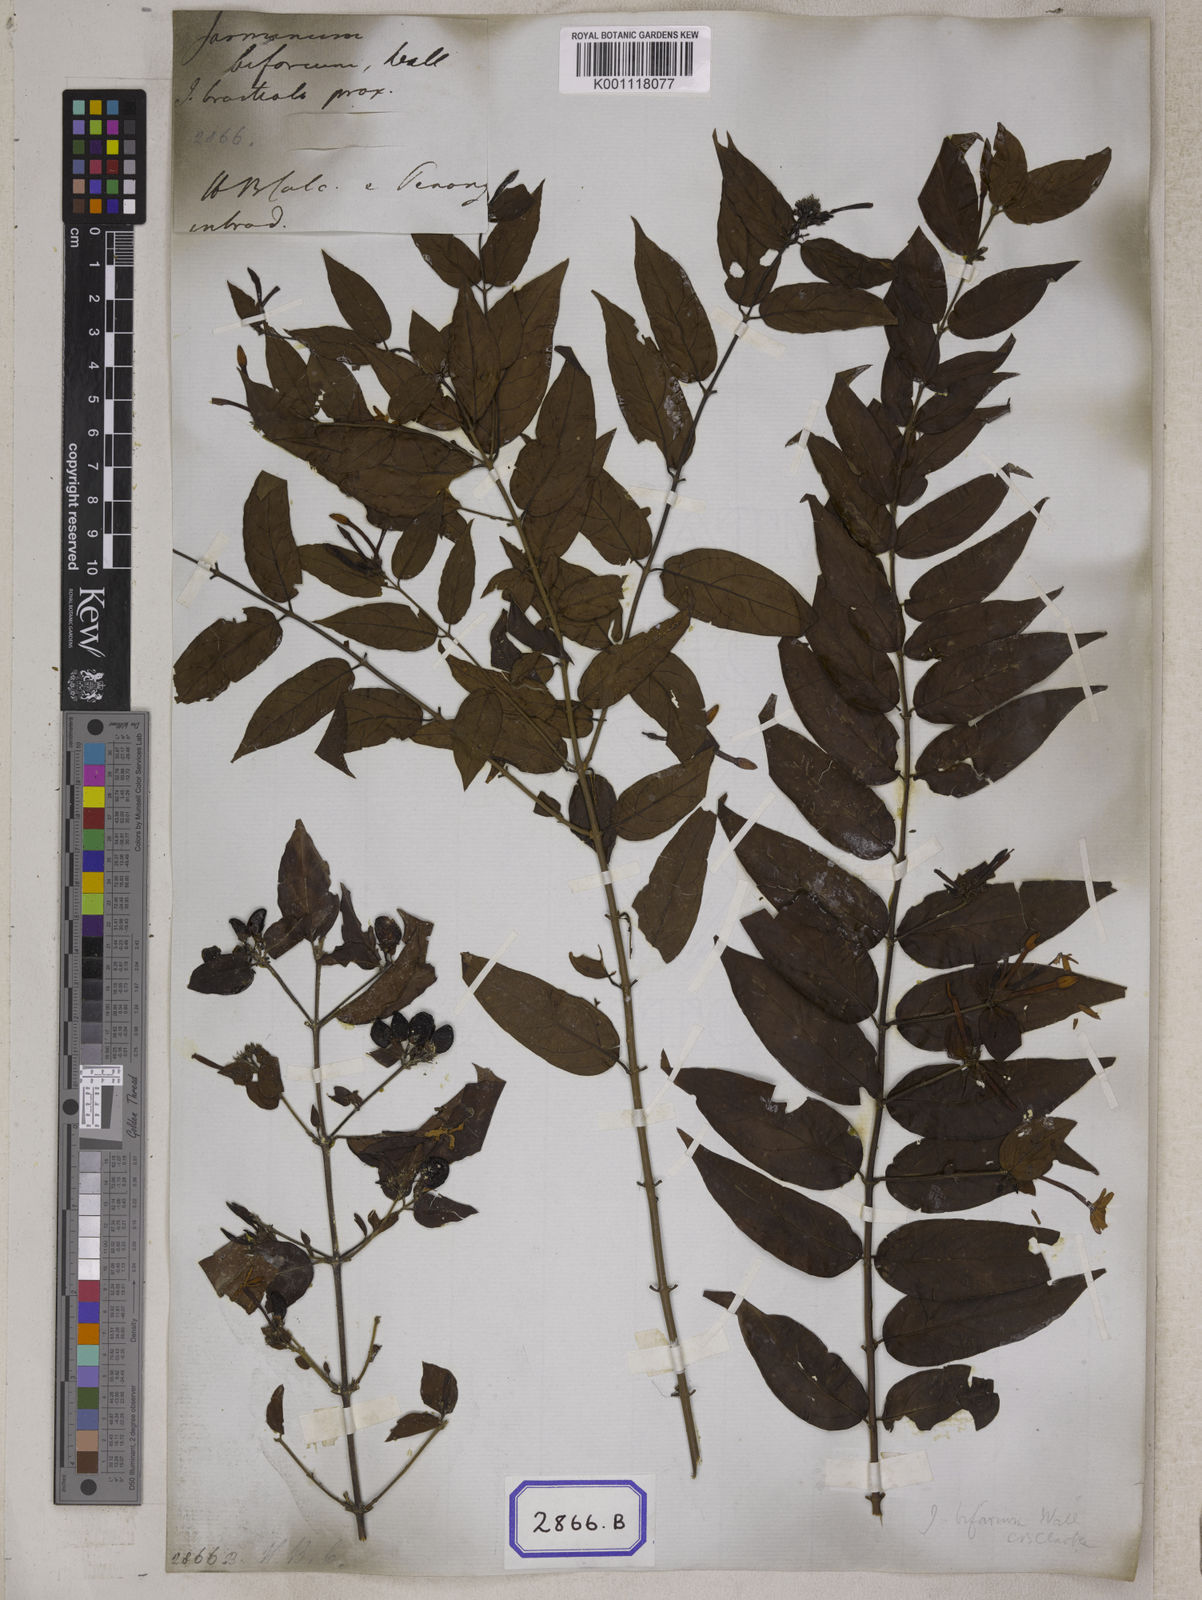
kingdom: Plantae
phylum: Tracheophyta
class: Magnoliopsida
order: Lamiales
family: Oleaceae
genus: Jasminum
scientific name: Jasminum
